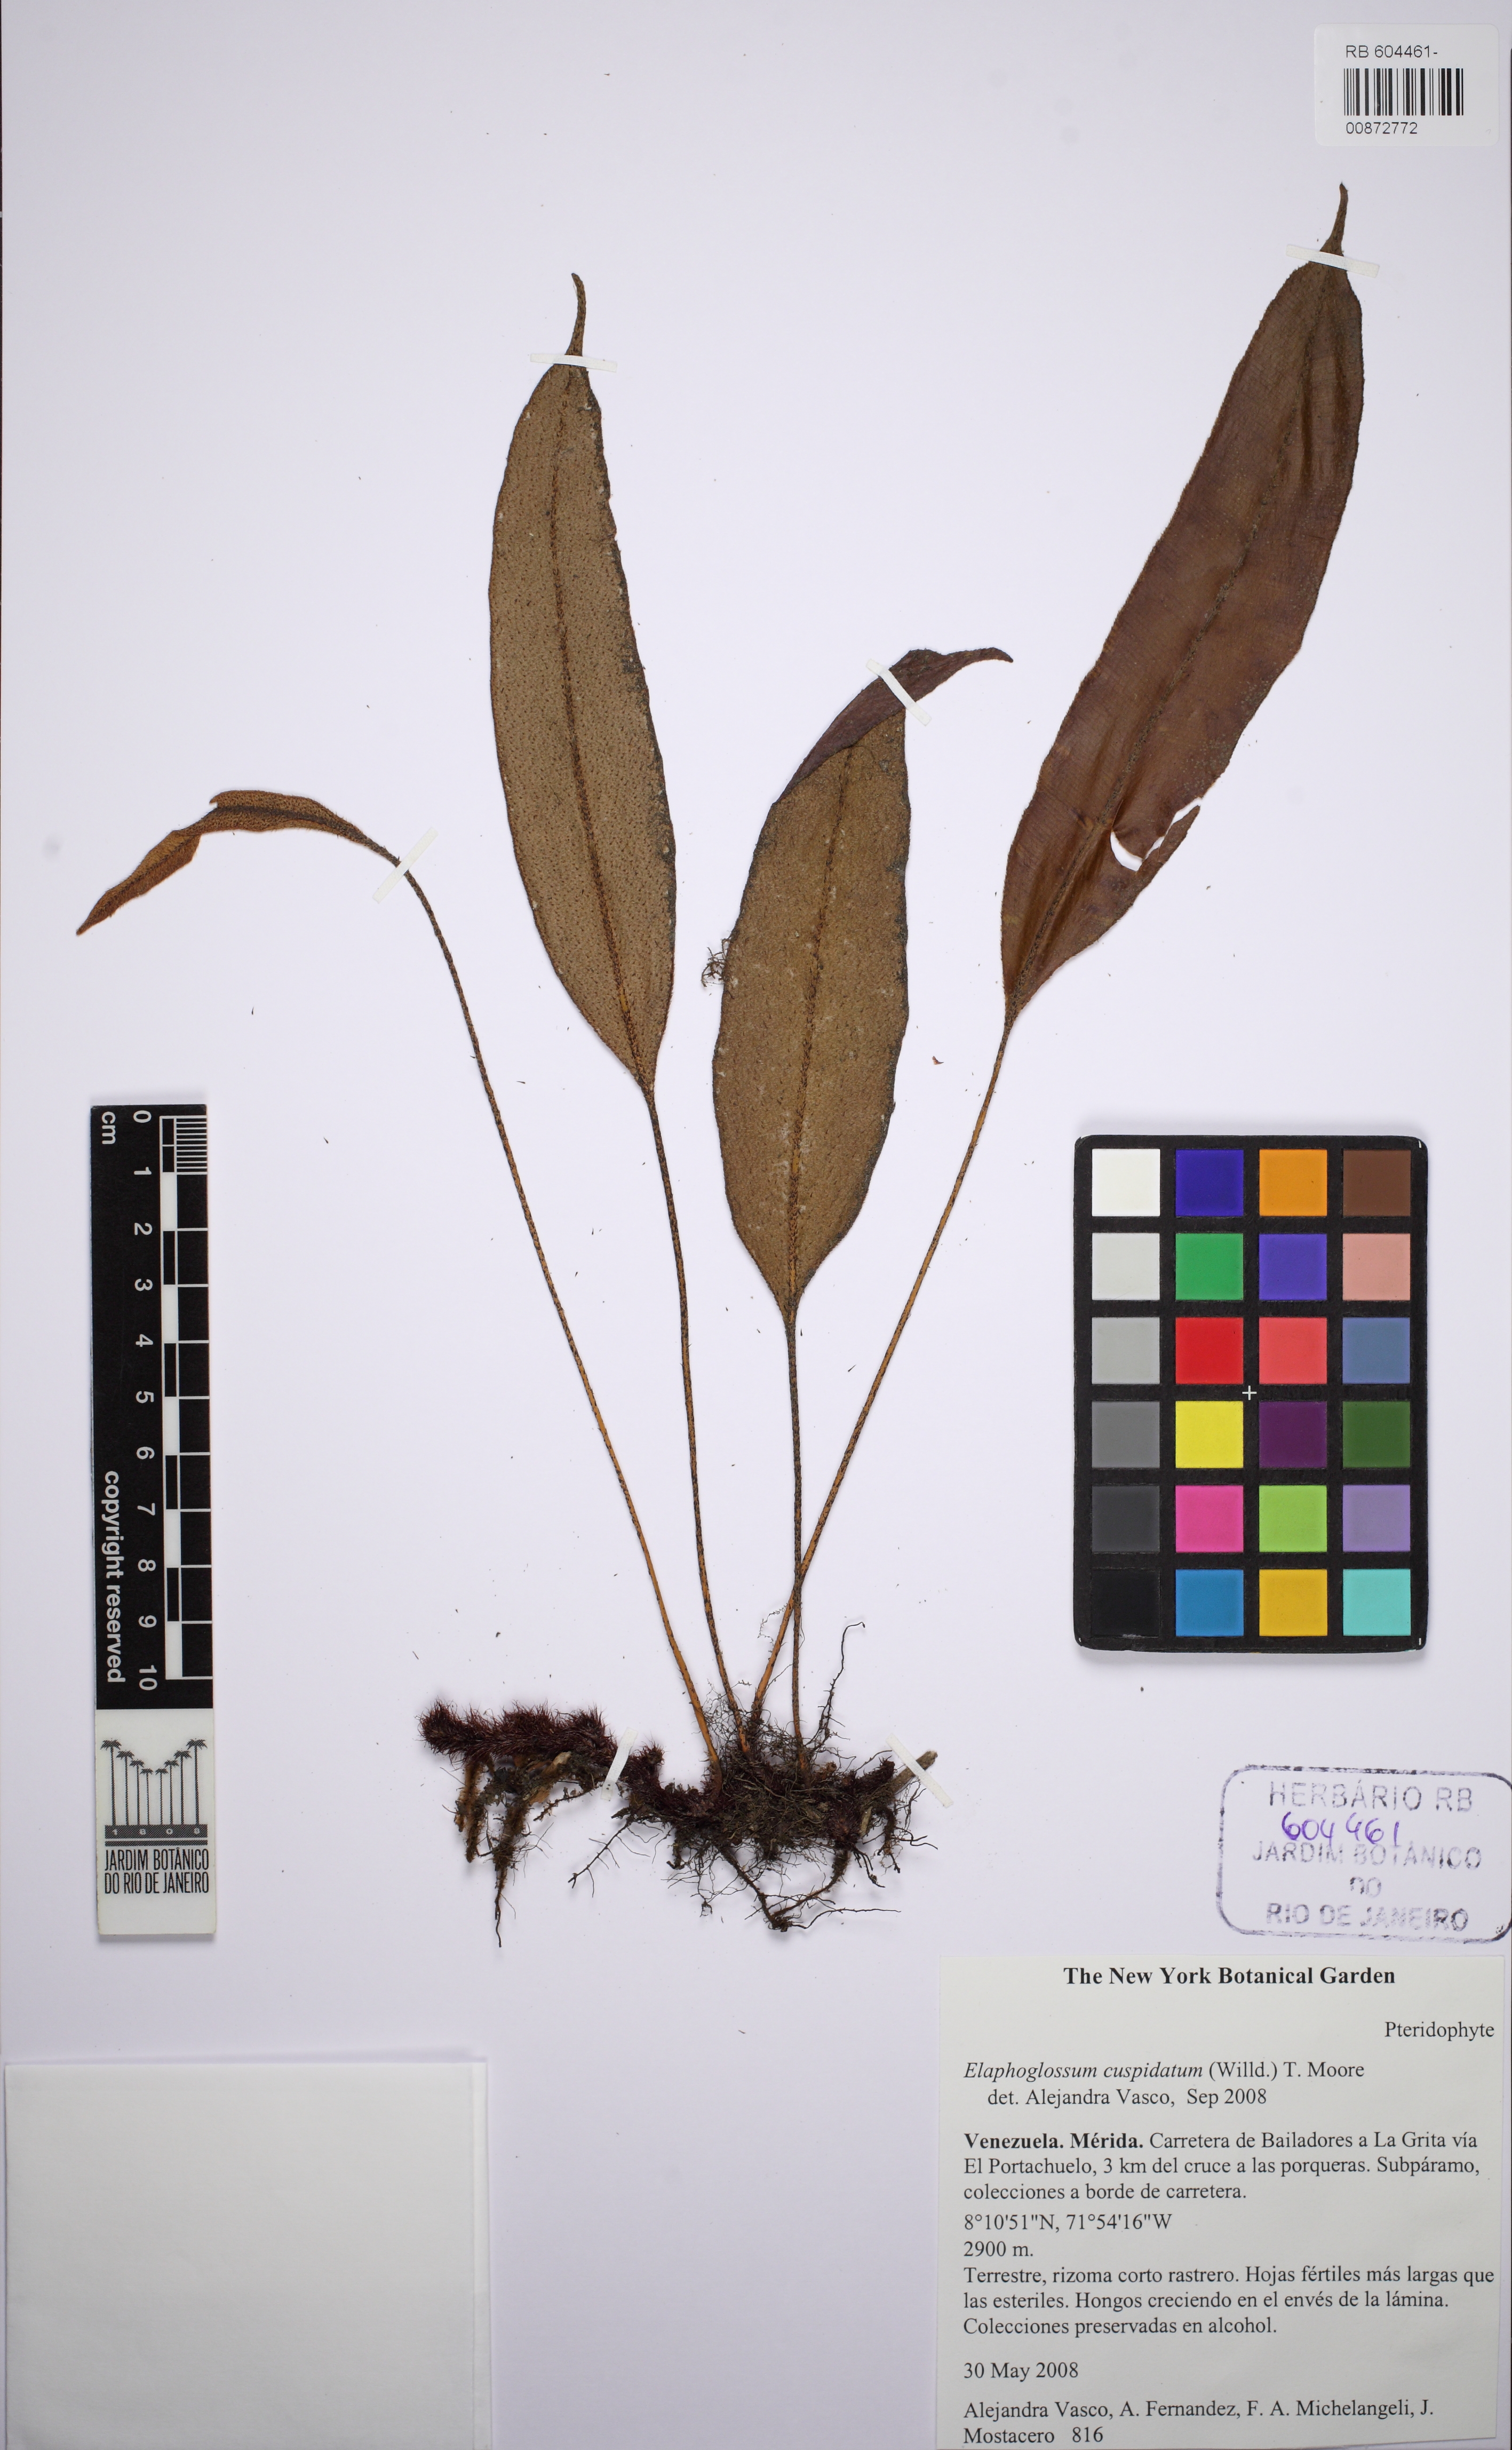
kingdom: Plantae
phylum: Tracheophyta
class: Polypodiopsida
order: Polypodiales
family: Dryopteridaceae
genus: Elaphoglossum
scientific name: Elaphoglossum cuspidatum
